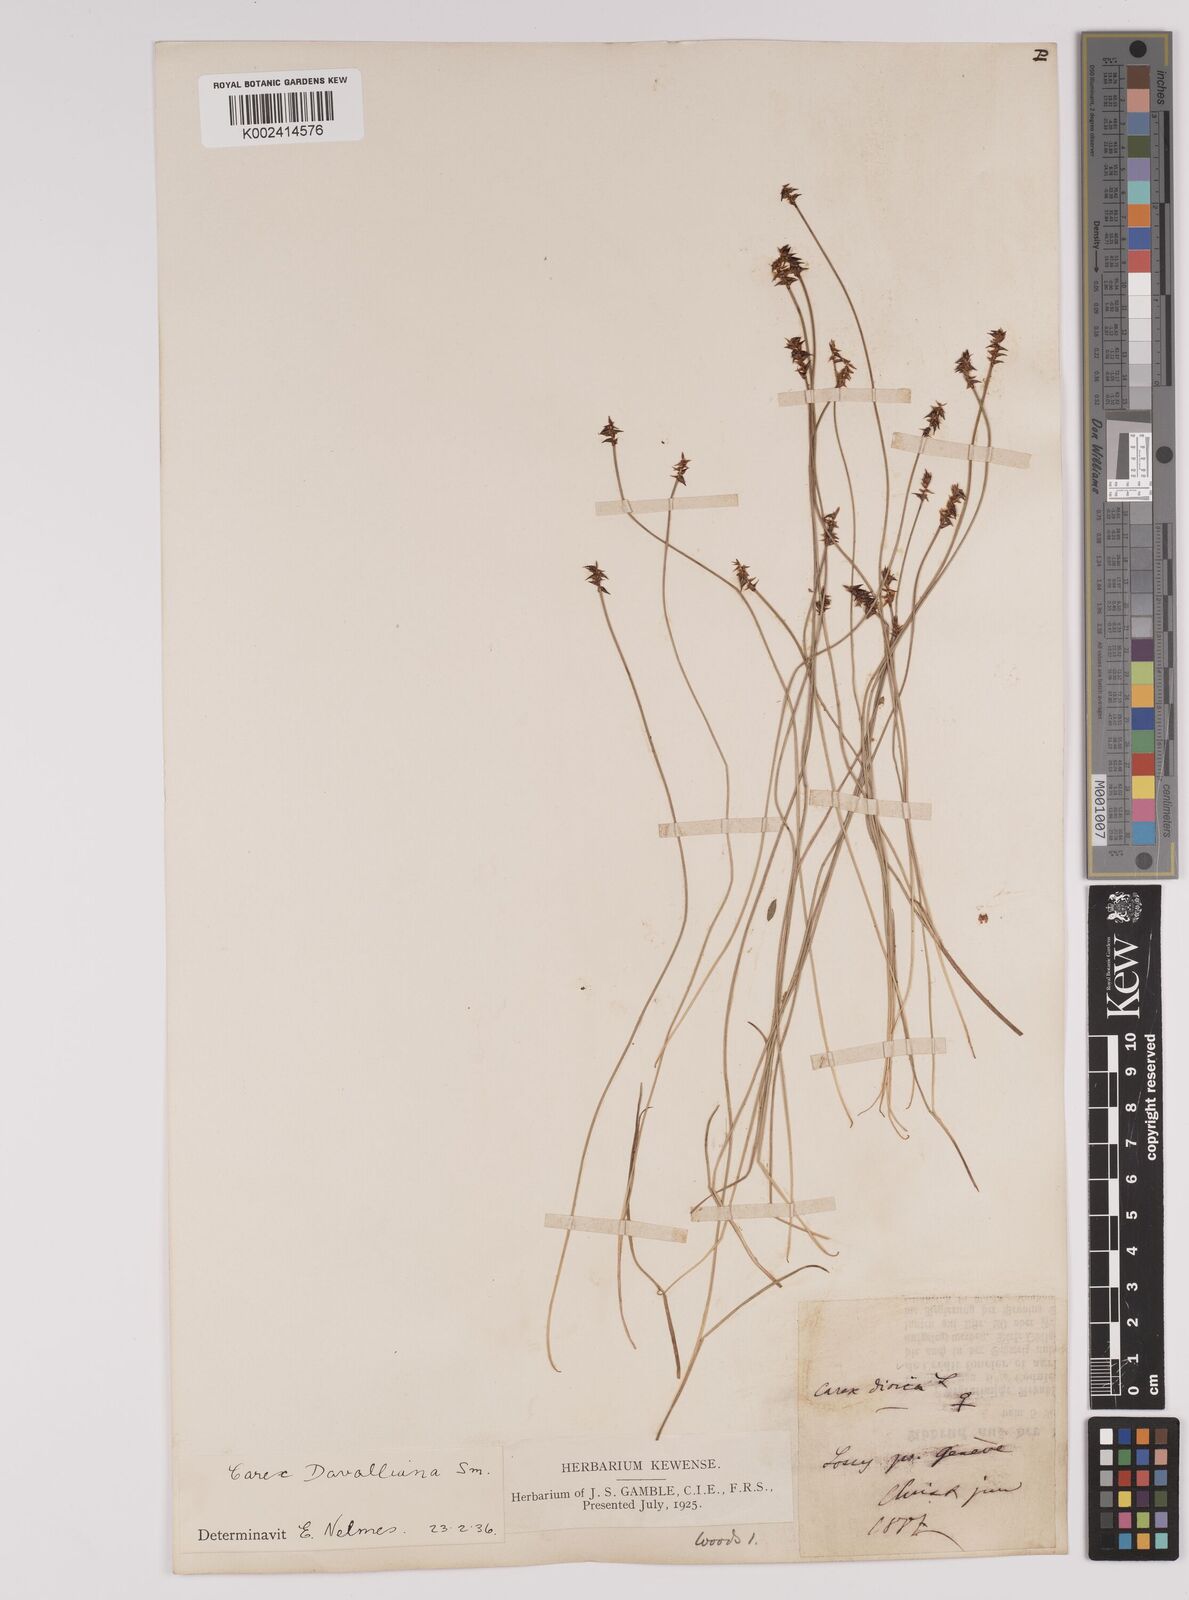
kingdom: Plantae
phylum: Tracheophyta
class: Liliopsida
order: Poales
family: Cyperaceae
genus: Carex
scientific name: Carex davalliana
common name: Davall's sedge
